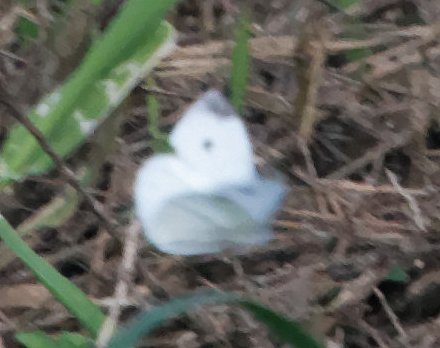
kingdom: Animalia
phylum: Arthropoda
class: Insecta
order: Lepidoptera
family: Pieridae
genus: Pieris
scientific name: Pieris rapae
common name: Cabbage White
